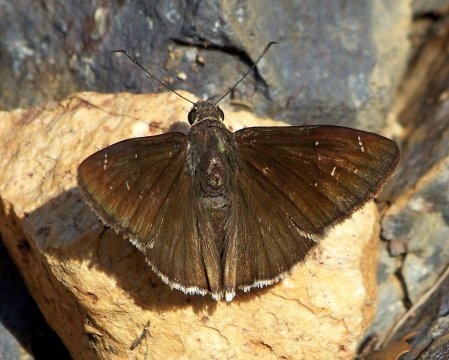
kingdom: Animalia
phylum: Arthropoda
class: Insecta
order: Lepidoptera
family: Hesperiidae
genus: Thorybes
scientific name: Thorybes drusius
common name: Drusius Cloudywing
